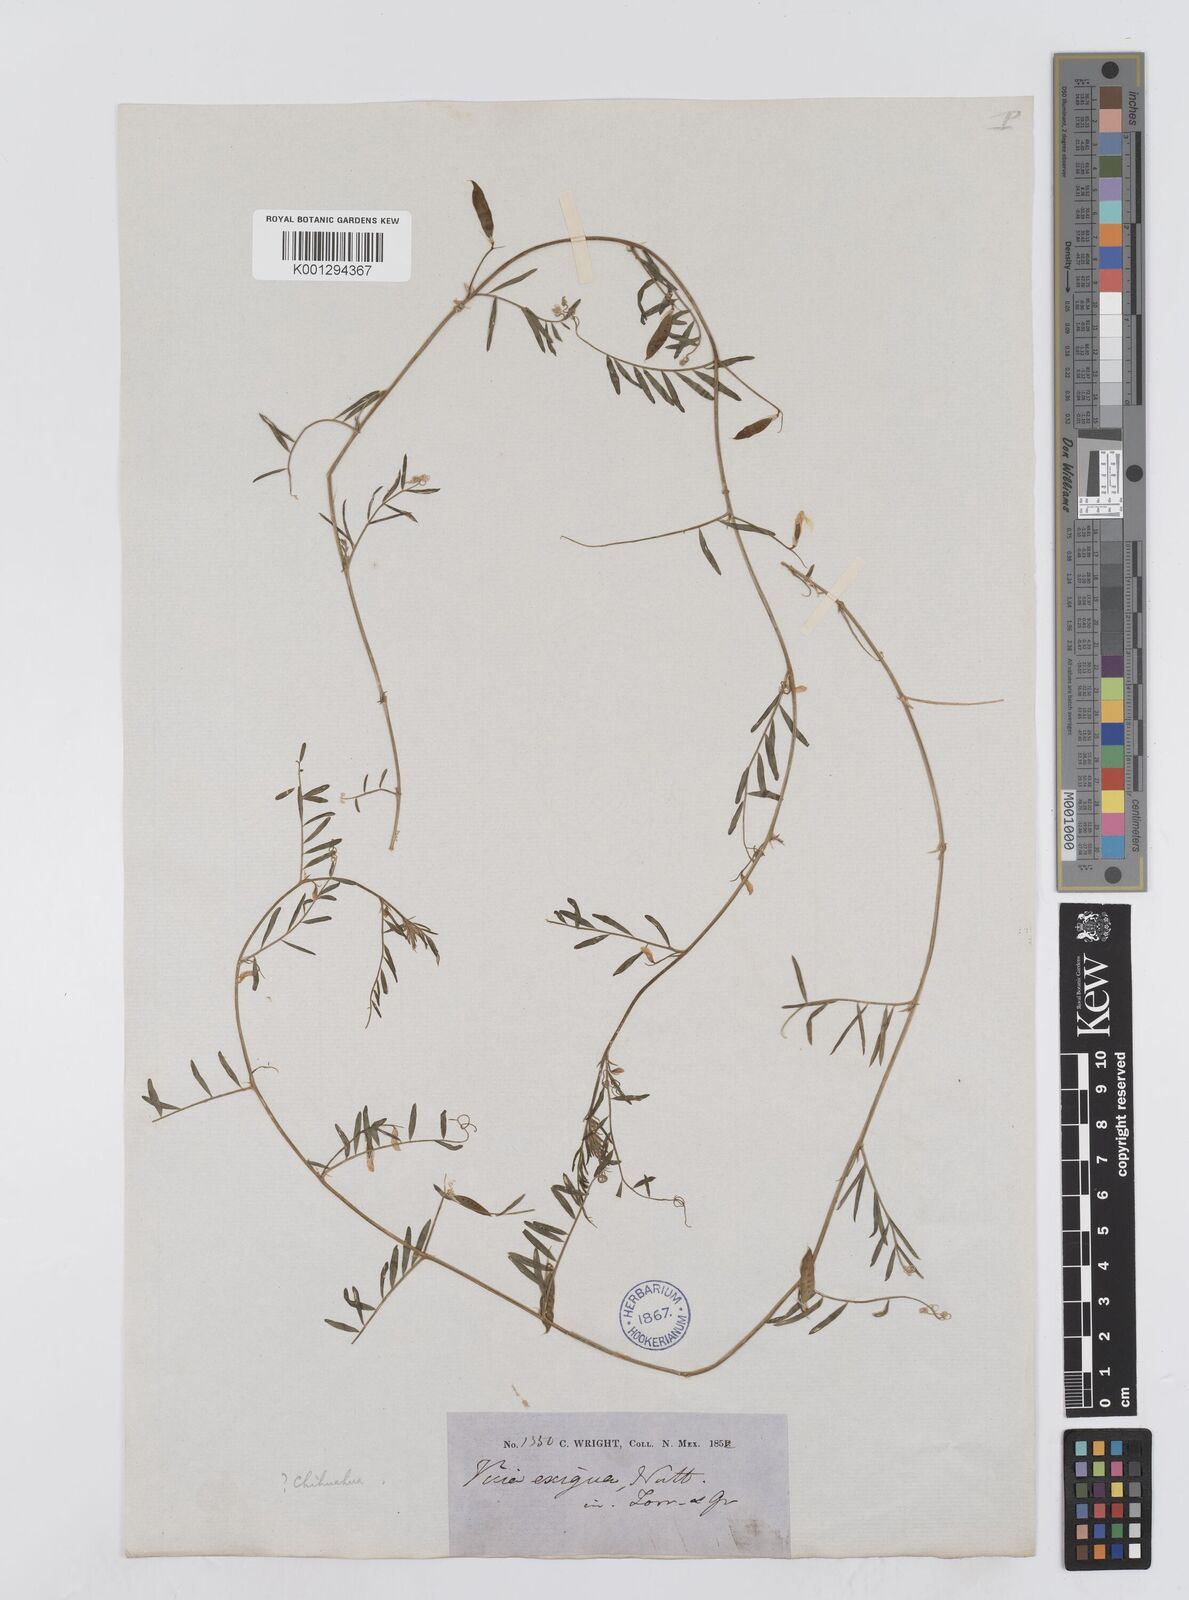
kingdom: Plantae
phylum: Tracheophyta
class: Magnoliopsida
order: Fabales
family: Fabaceae
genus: Vicia
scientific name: Vicia ludoviciana
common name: Louisiana vetch
